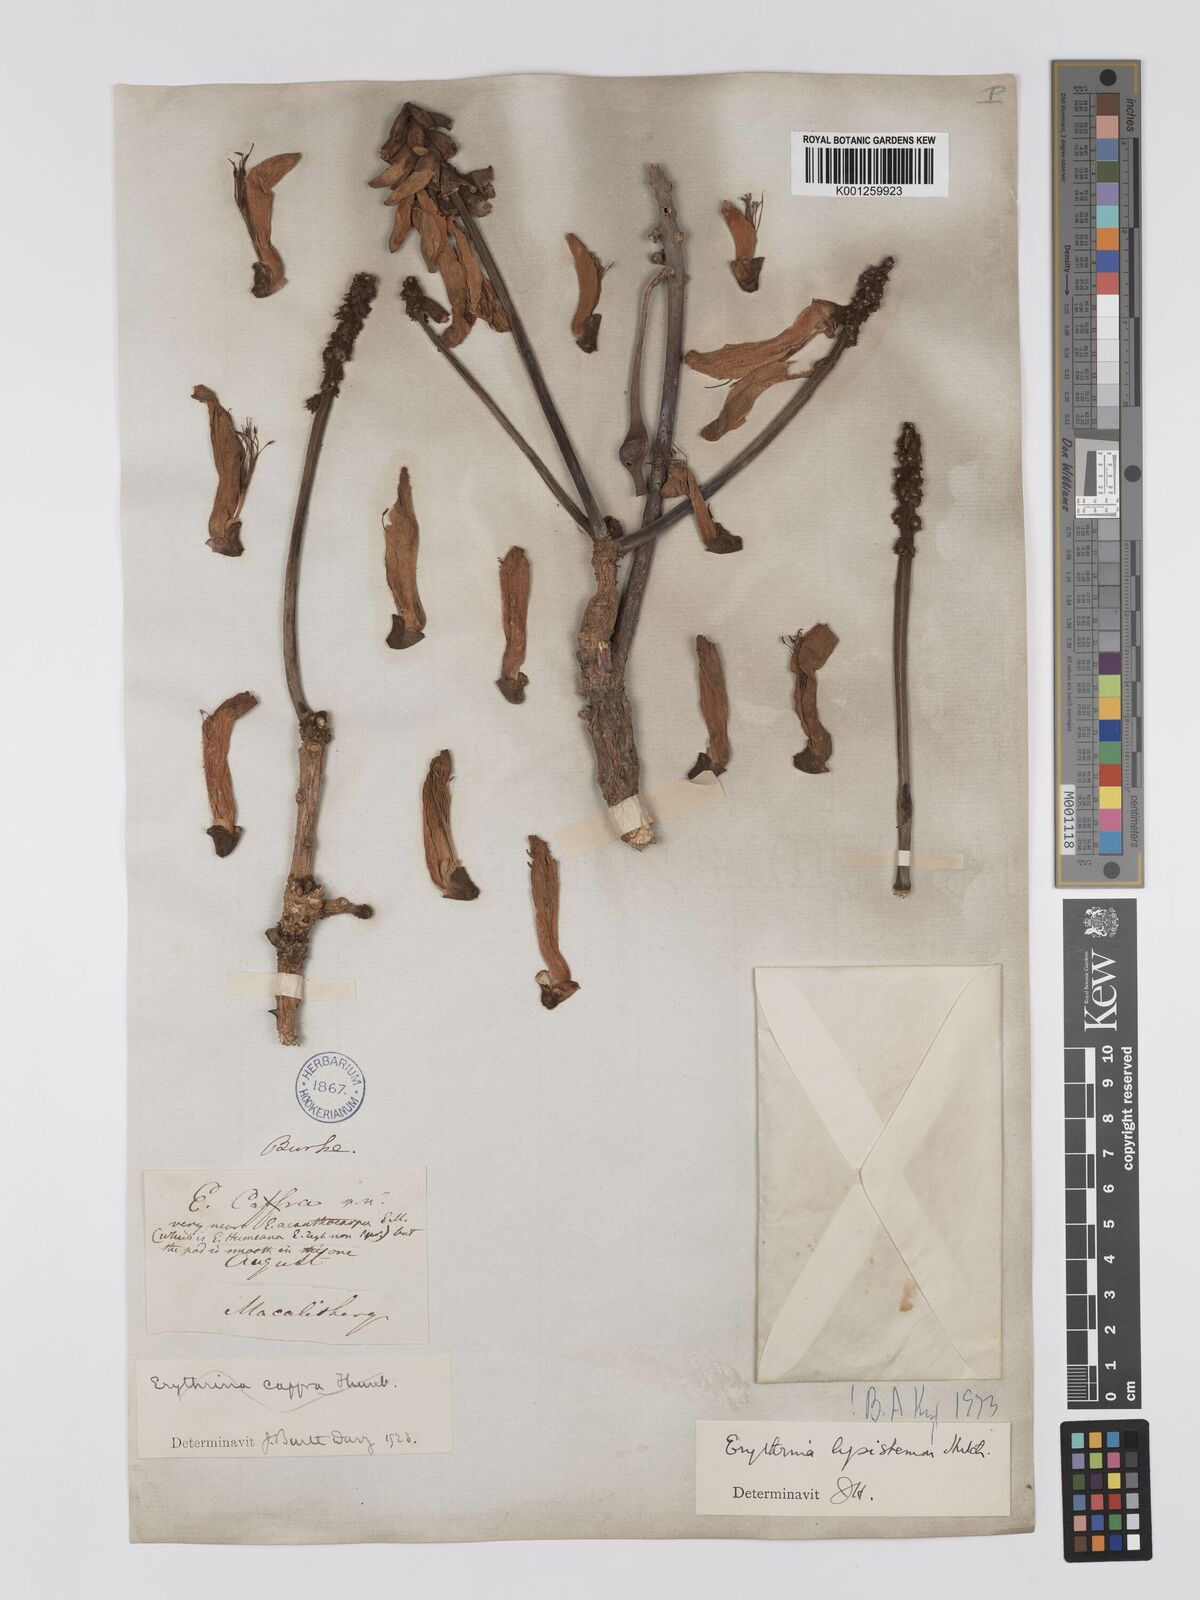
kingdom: Plantae
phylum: Tracheophyta
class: Magnoliopsida
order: Fabales
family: Fabaceae
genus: Erythrina
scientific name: Erythrina lysistemon
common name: Common coral tree
